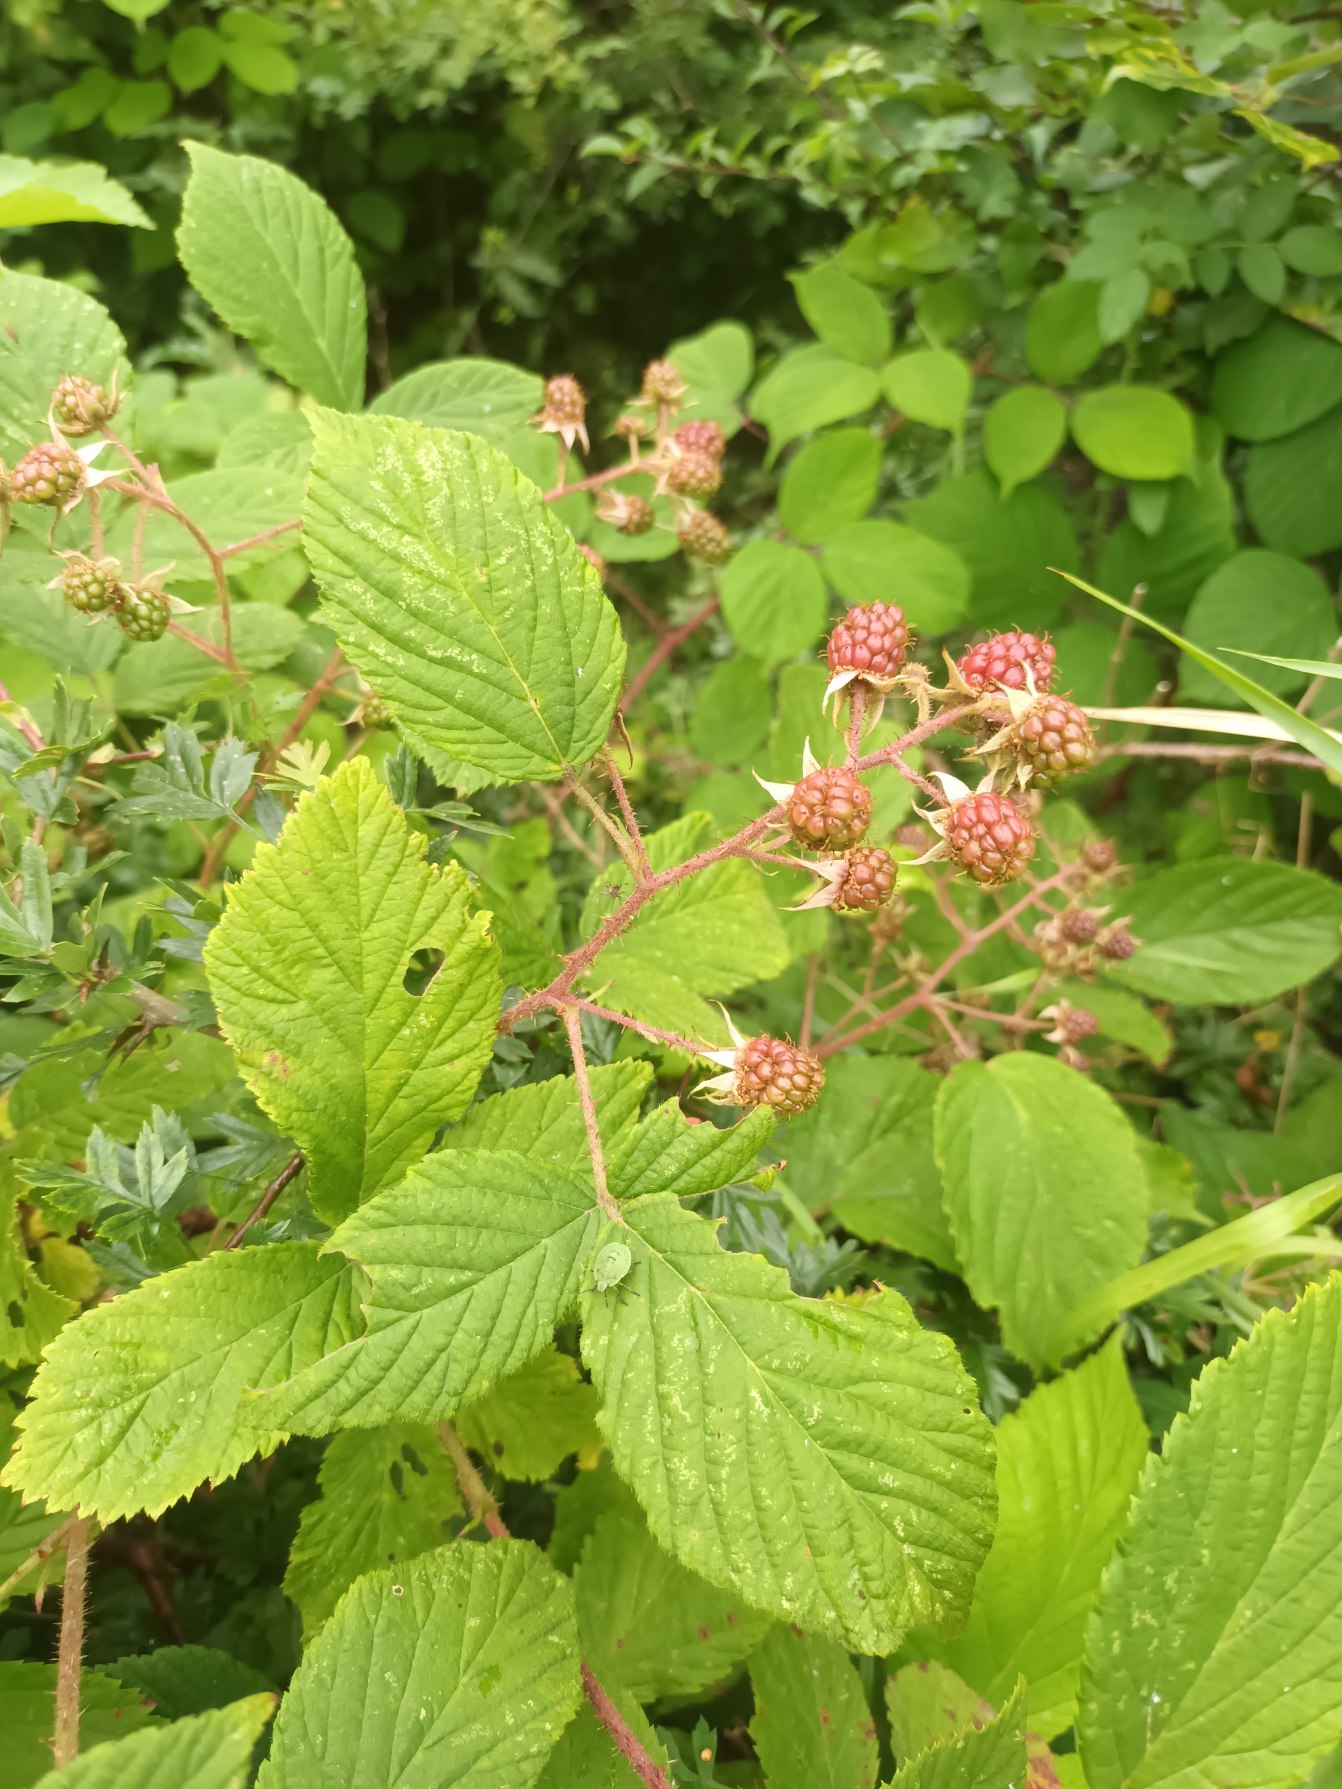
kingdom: Plantae
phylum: Tracheophyta
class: Magnoliopsida
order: Rosales
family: Rosaceae
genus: Rubus
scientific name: Rubus nigricans
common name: Trebladet brombær
